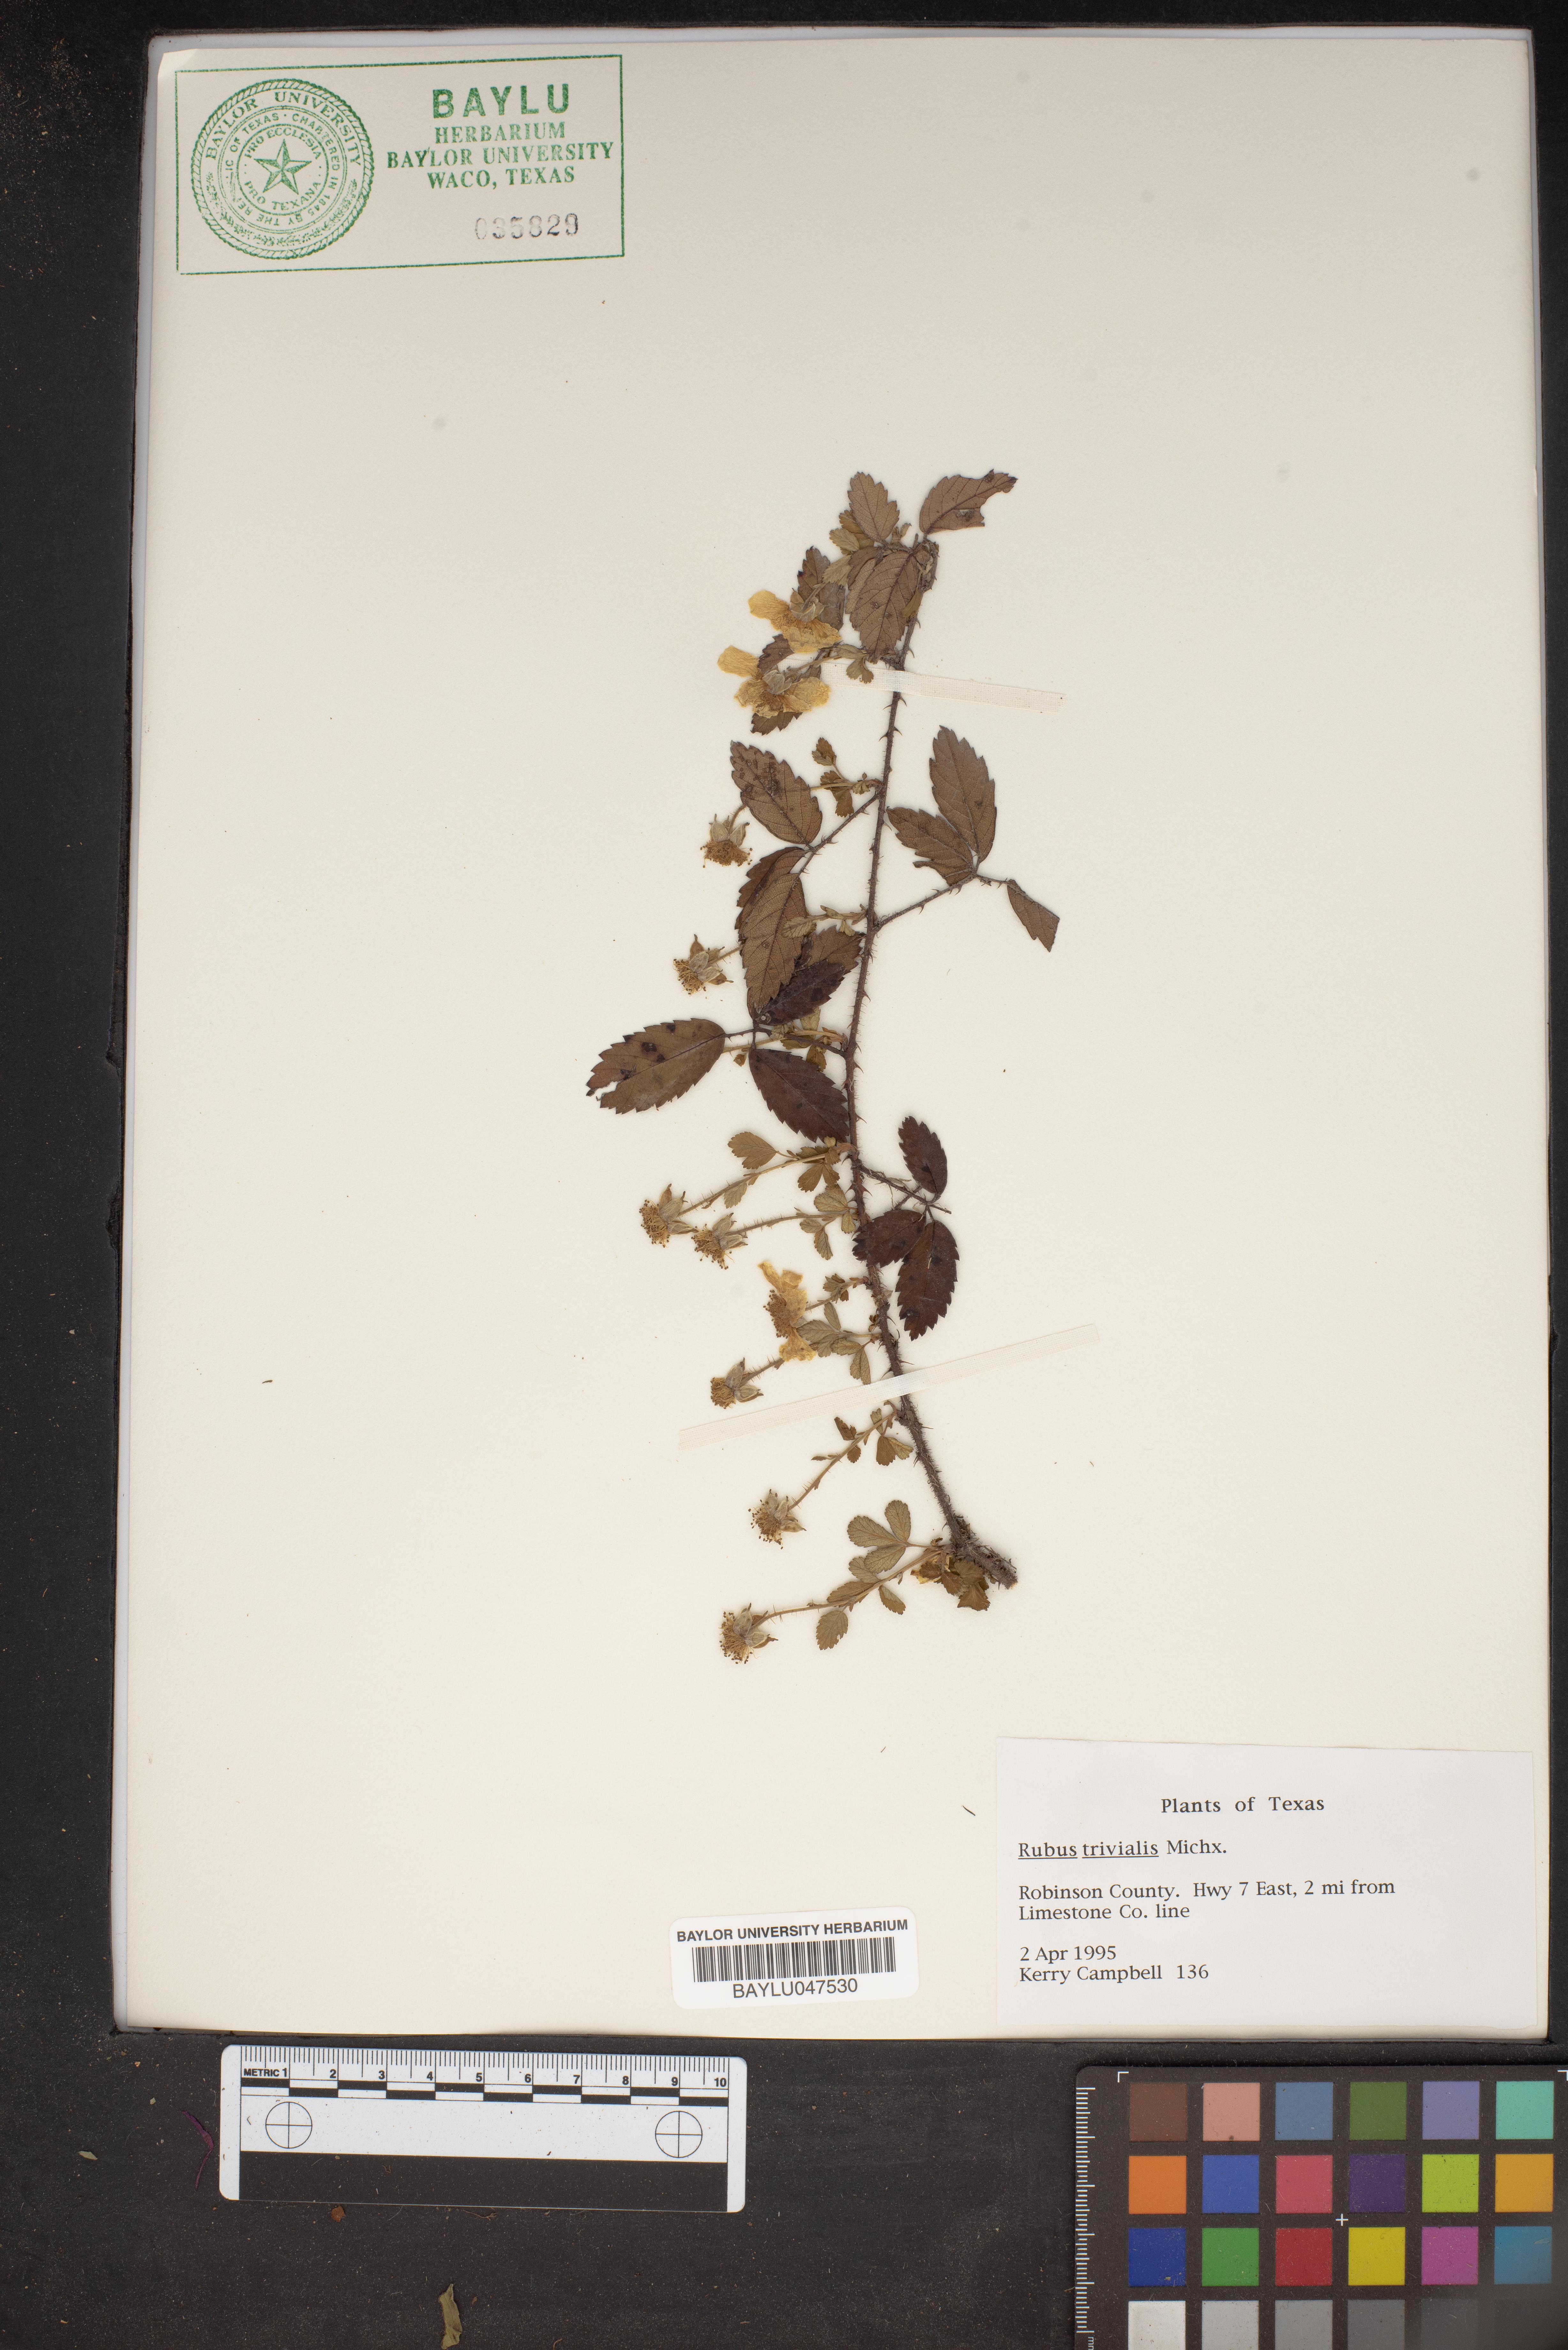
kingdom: Plantae
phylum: Tracheophyta
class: Magnoliopsida
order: Rosales
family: Rosaceae
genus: Rubus
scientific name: Rubus trivialis
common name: Southern dewberry
